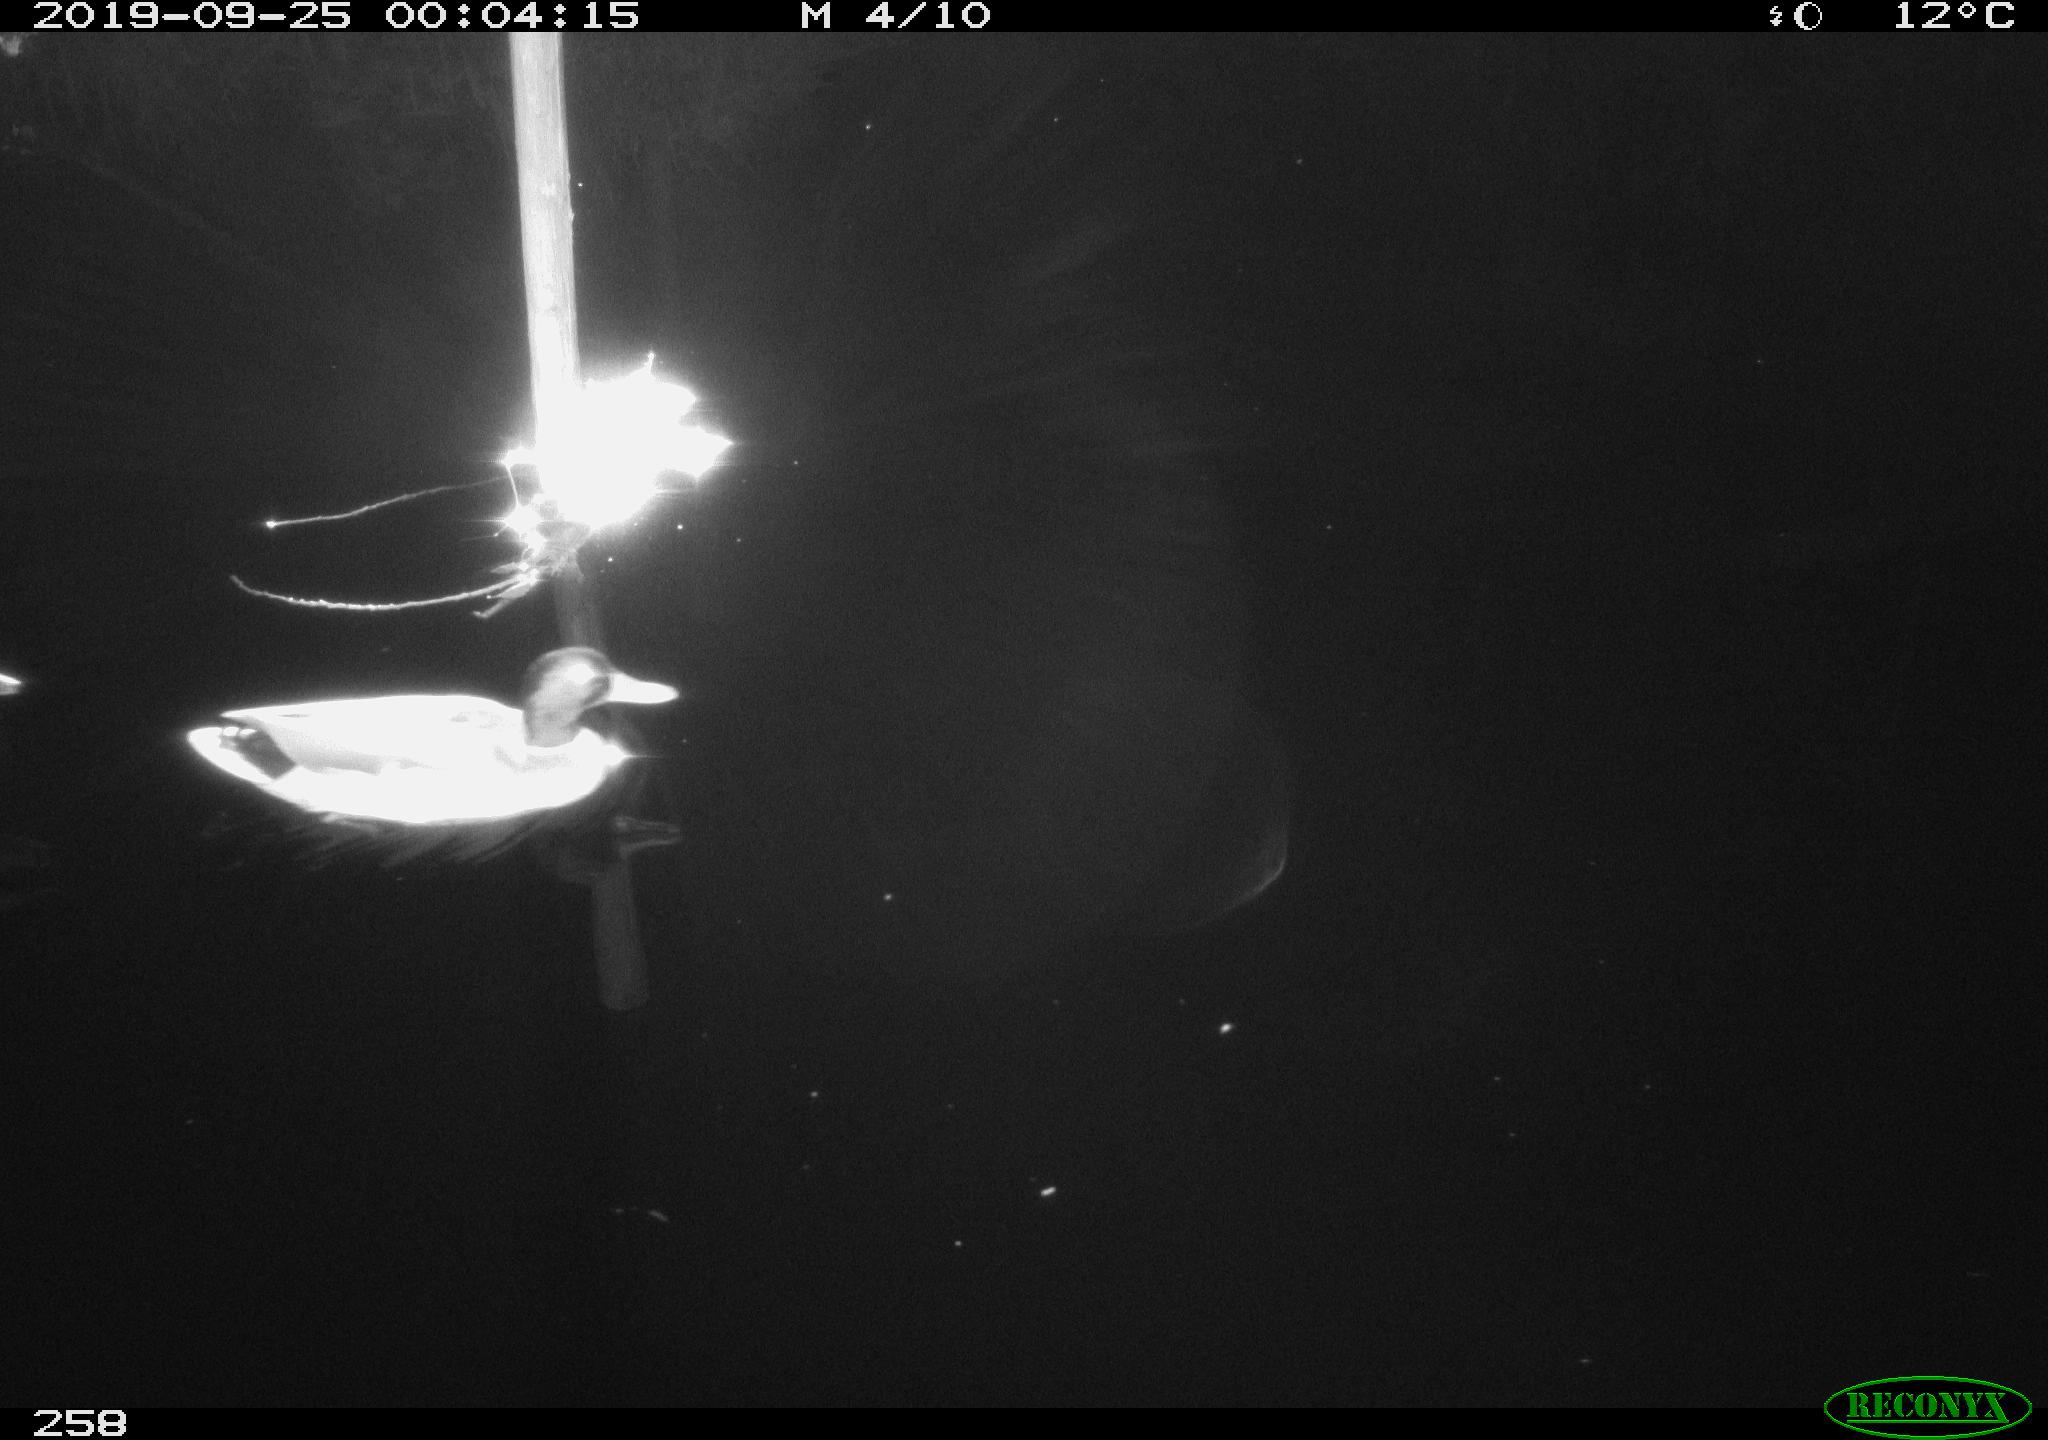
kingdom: Animalia
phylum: Chordata
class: Aves
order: Anseriformes
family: Anatidae
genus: Anas
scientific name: Anas platyrhynchos
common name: Mallard
